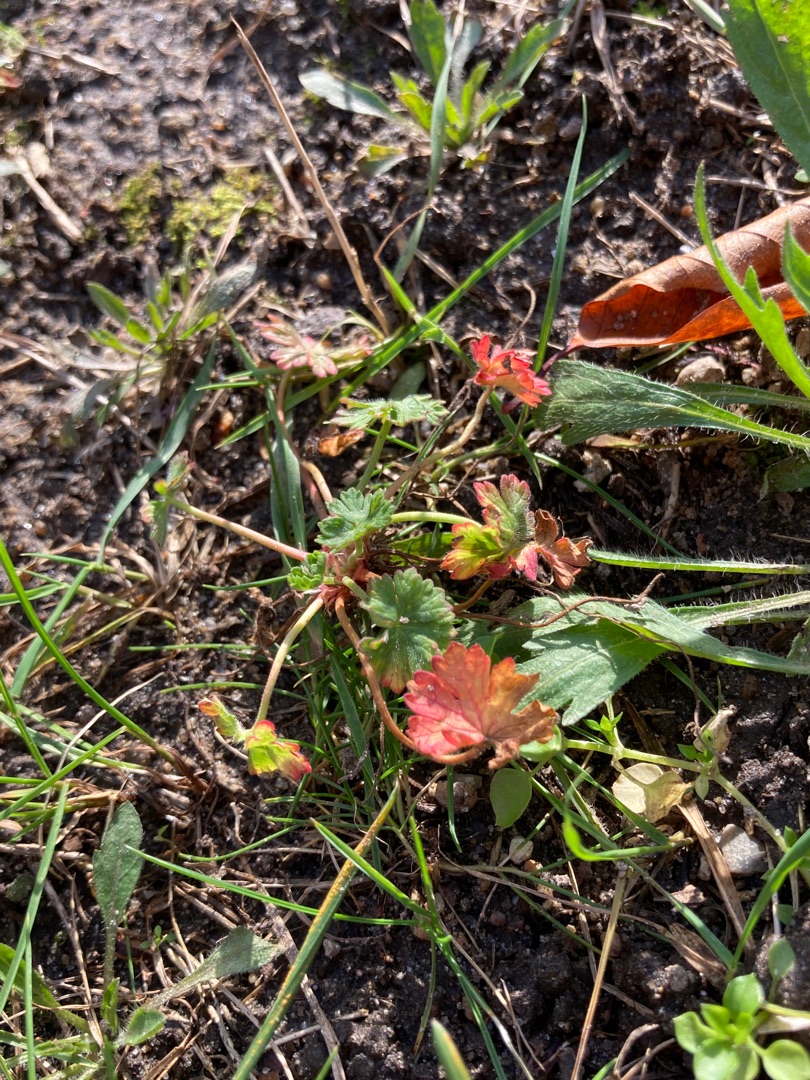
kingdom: Plantae
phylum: Tracheophyta
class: Magnoliopsida
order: Geraniales
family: Geraniaceae
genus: Geranium
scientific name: Geranium pusillum
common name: Liden storkenæb
